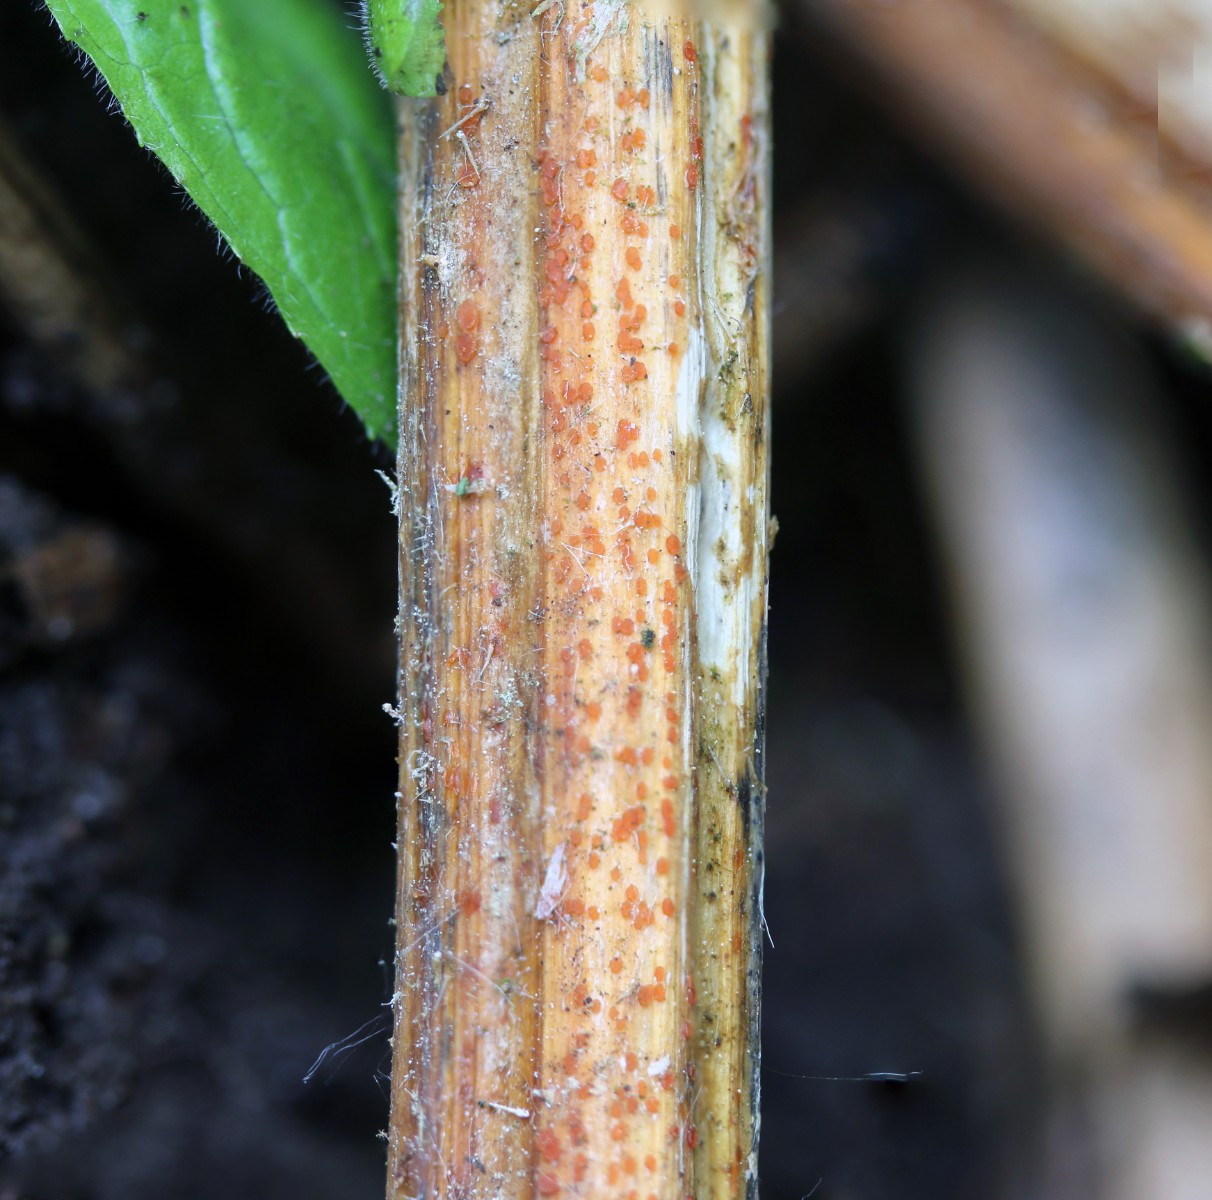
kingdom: Fungi
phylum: Ascomycota
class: Leotiomycetes
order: Helotiales
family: Calloriaceae
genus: Calloria
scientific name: Calloria urticae
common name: nælde-orangeskive
